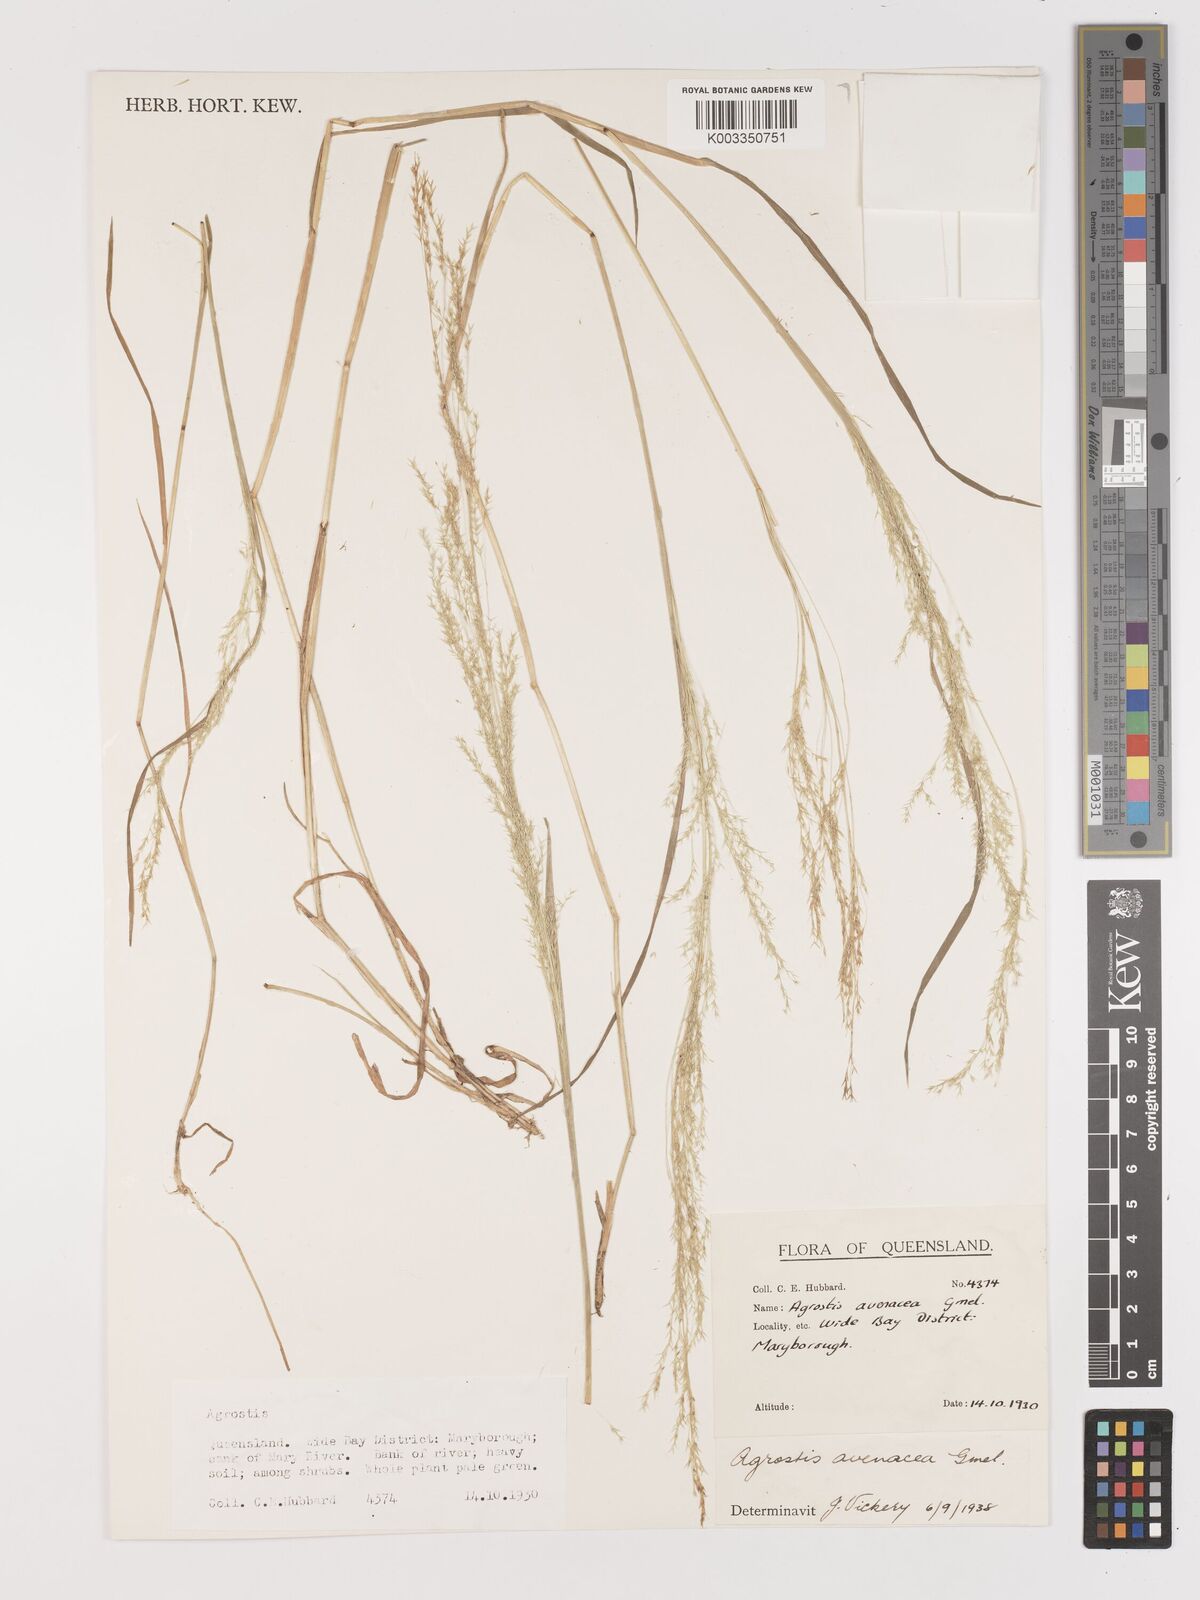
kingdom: Plantae
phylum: Tracheophyta
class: Liliopsida
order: Poales
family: Poaceae
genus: Lachnagrostis
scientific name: Lachnagrostis filiformis
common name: Bentgrass
